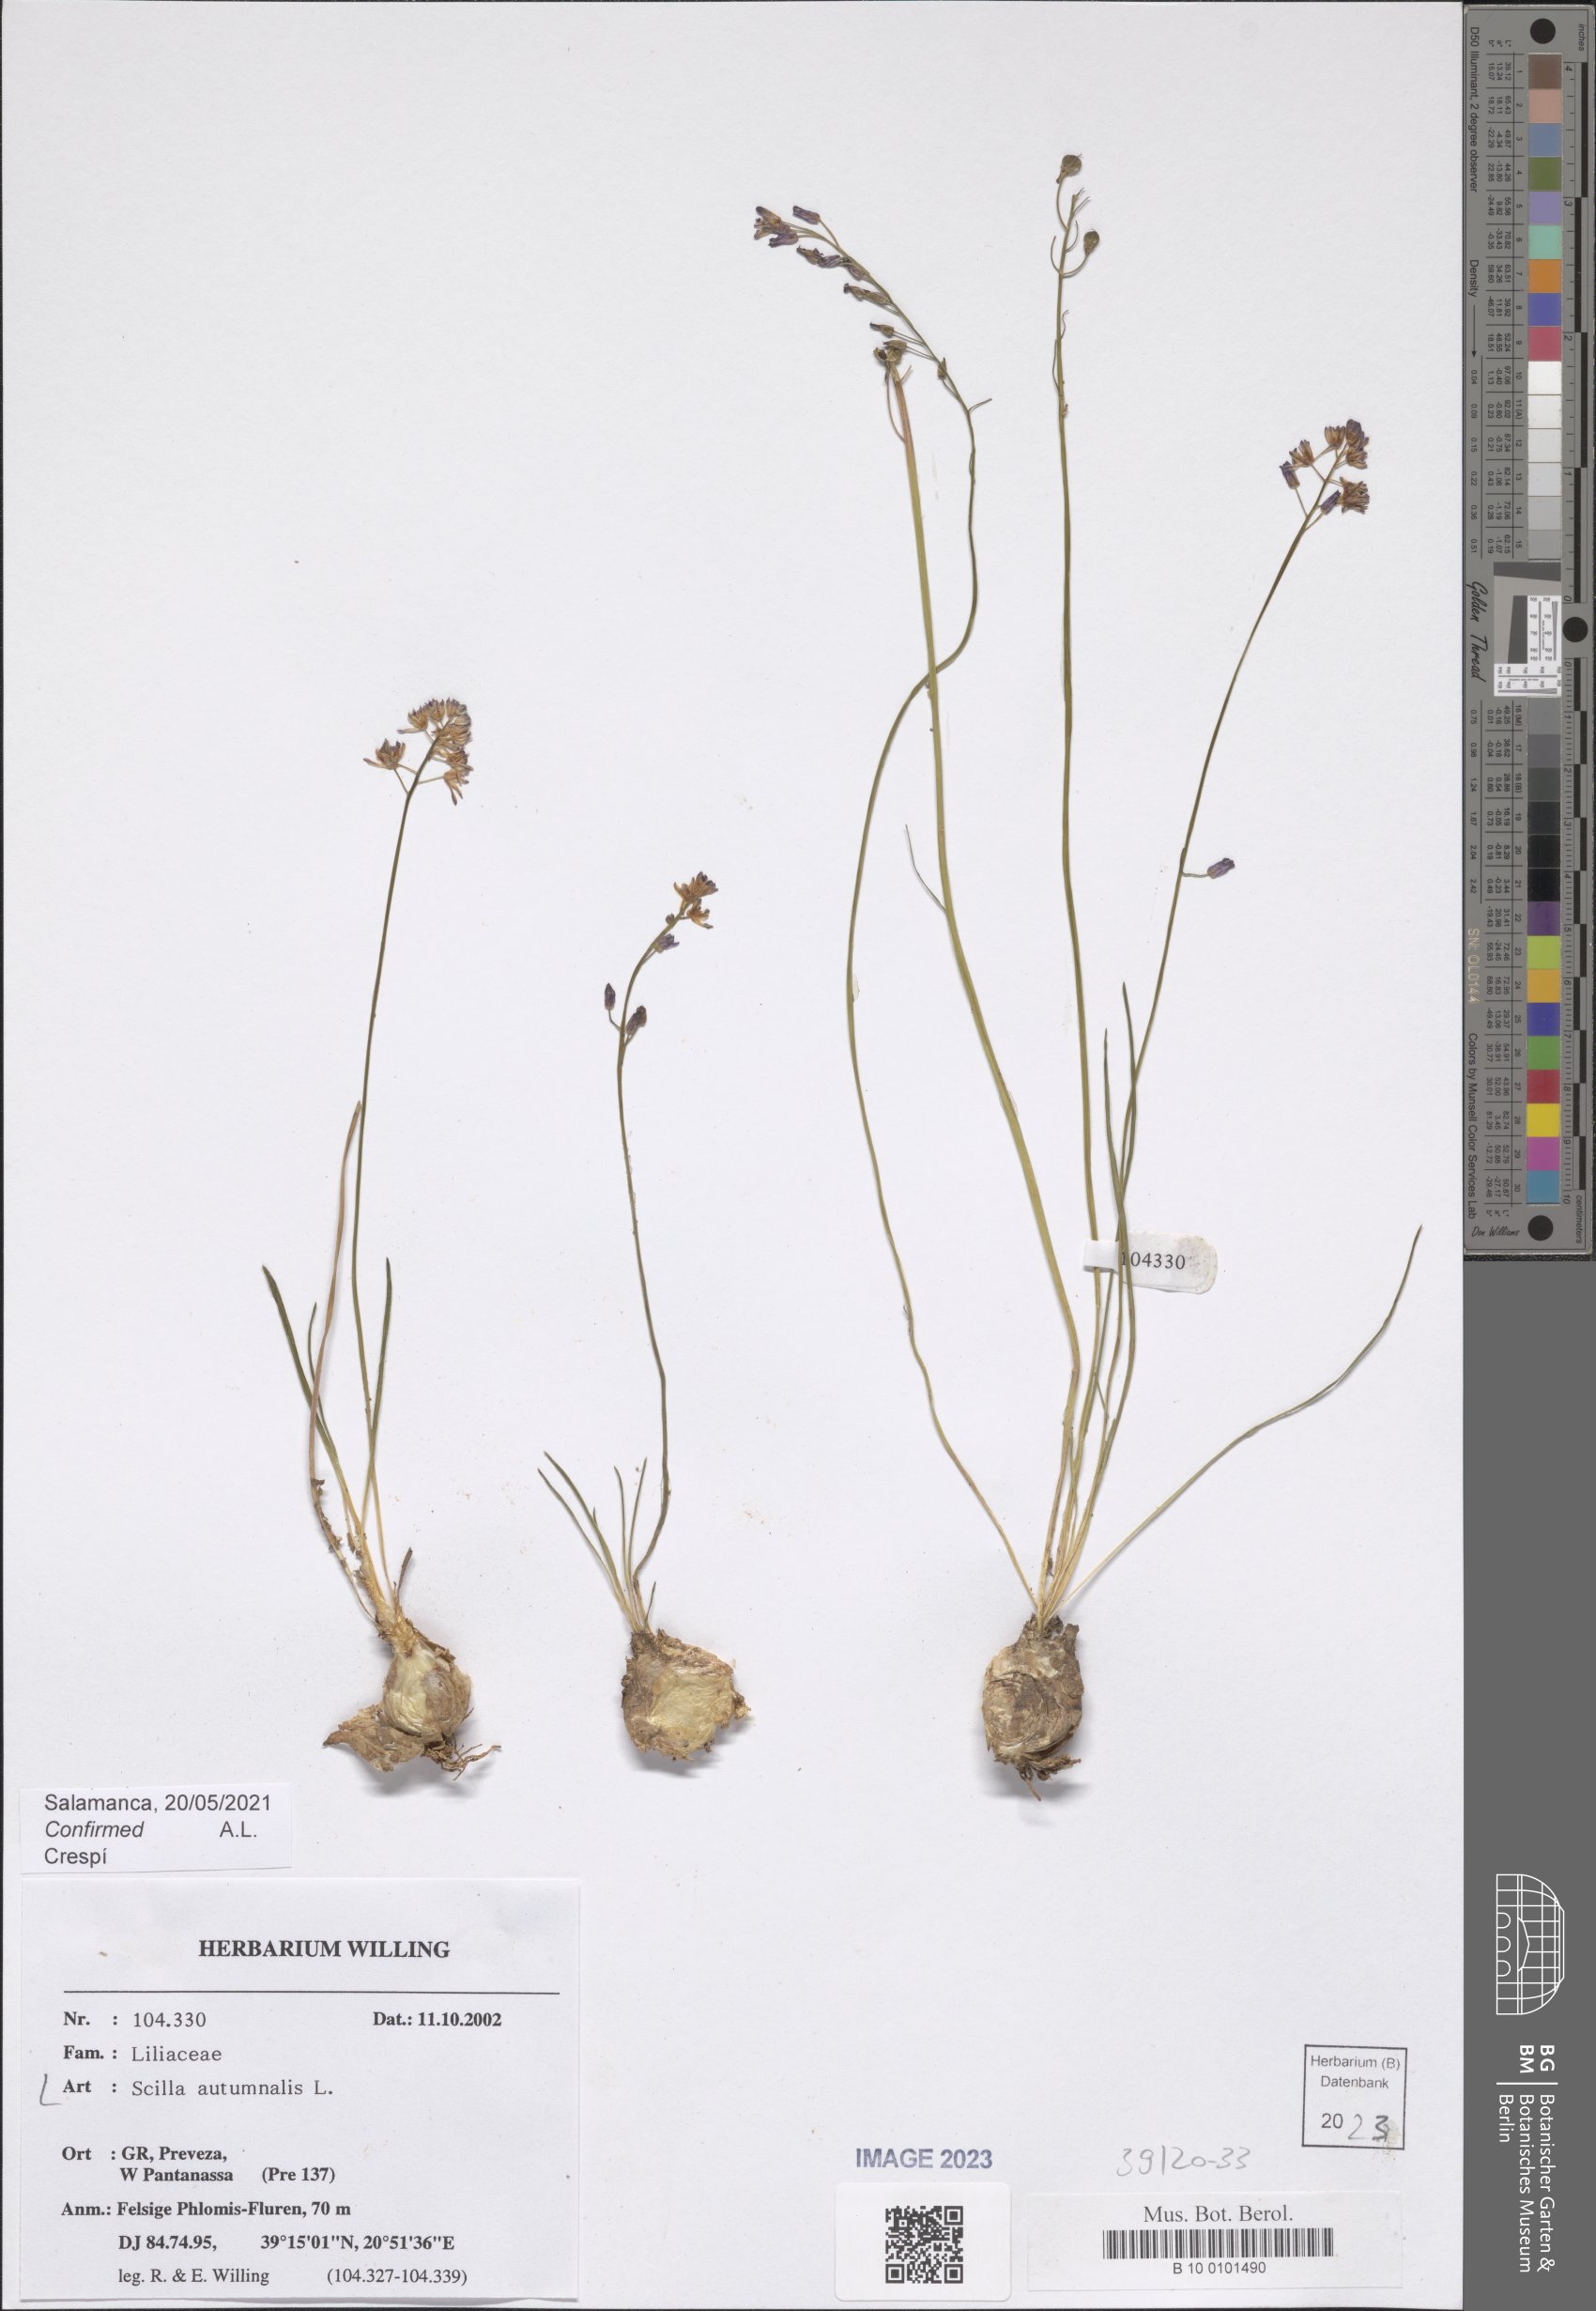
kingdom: Plantae
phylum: Tracheophyta
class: Liliopsida
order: Asparagales
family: Asparagaceae
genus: Prospero
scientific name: Prospero autumnale
